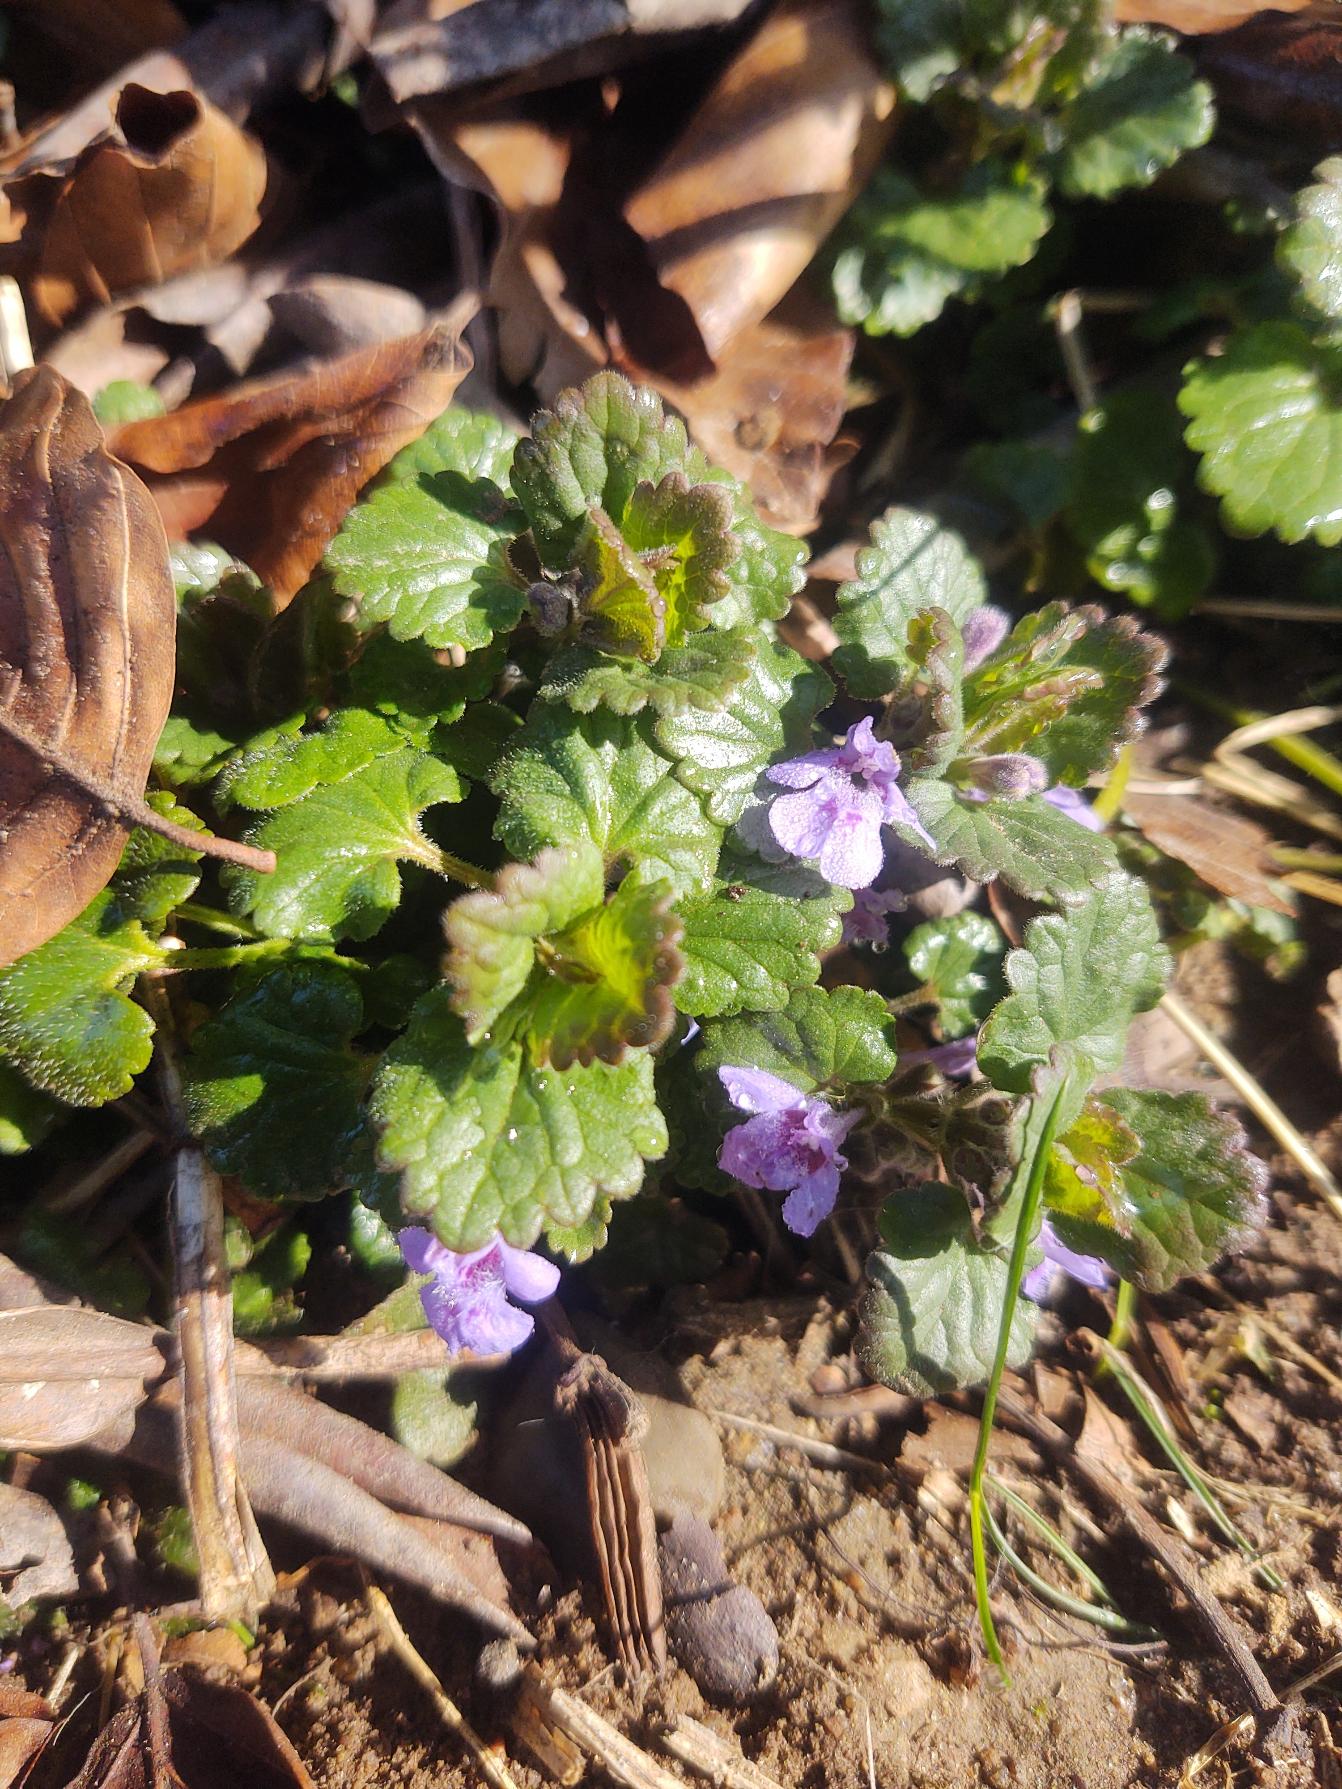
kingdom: Plantae
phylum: Tracheophyta
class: Magnoliopsida
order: Lamiales
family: Lamiaceae
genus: Glechoma
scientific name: Glechoma hederacea
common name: Korsknap
